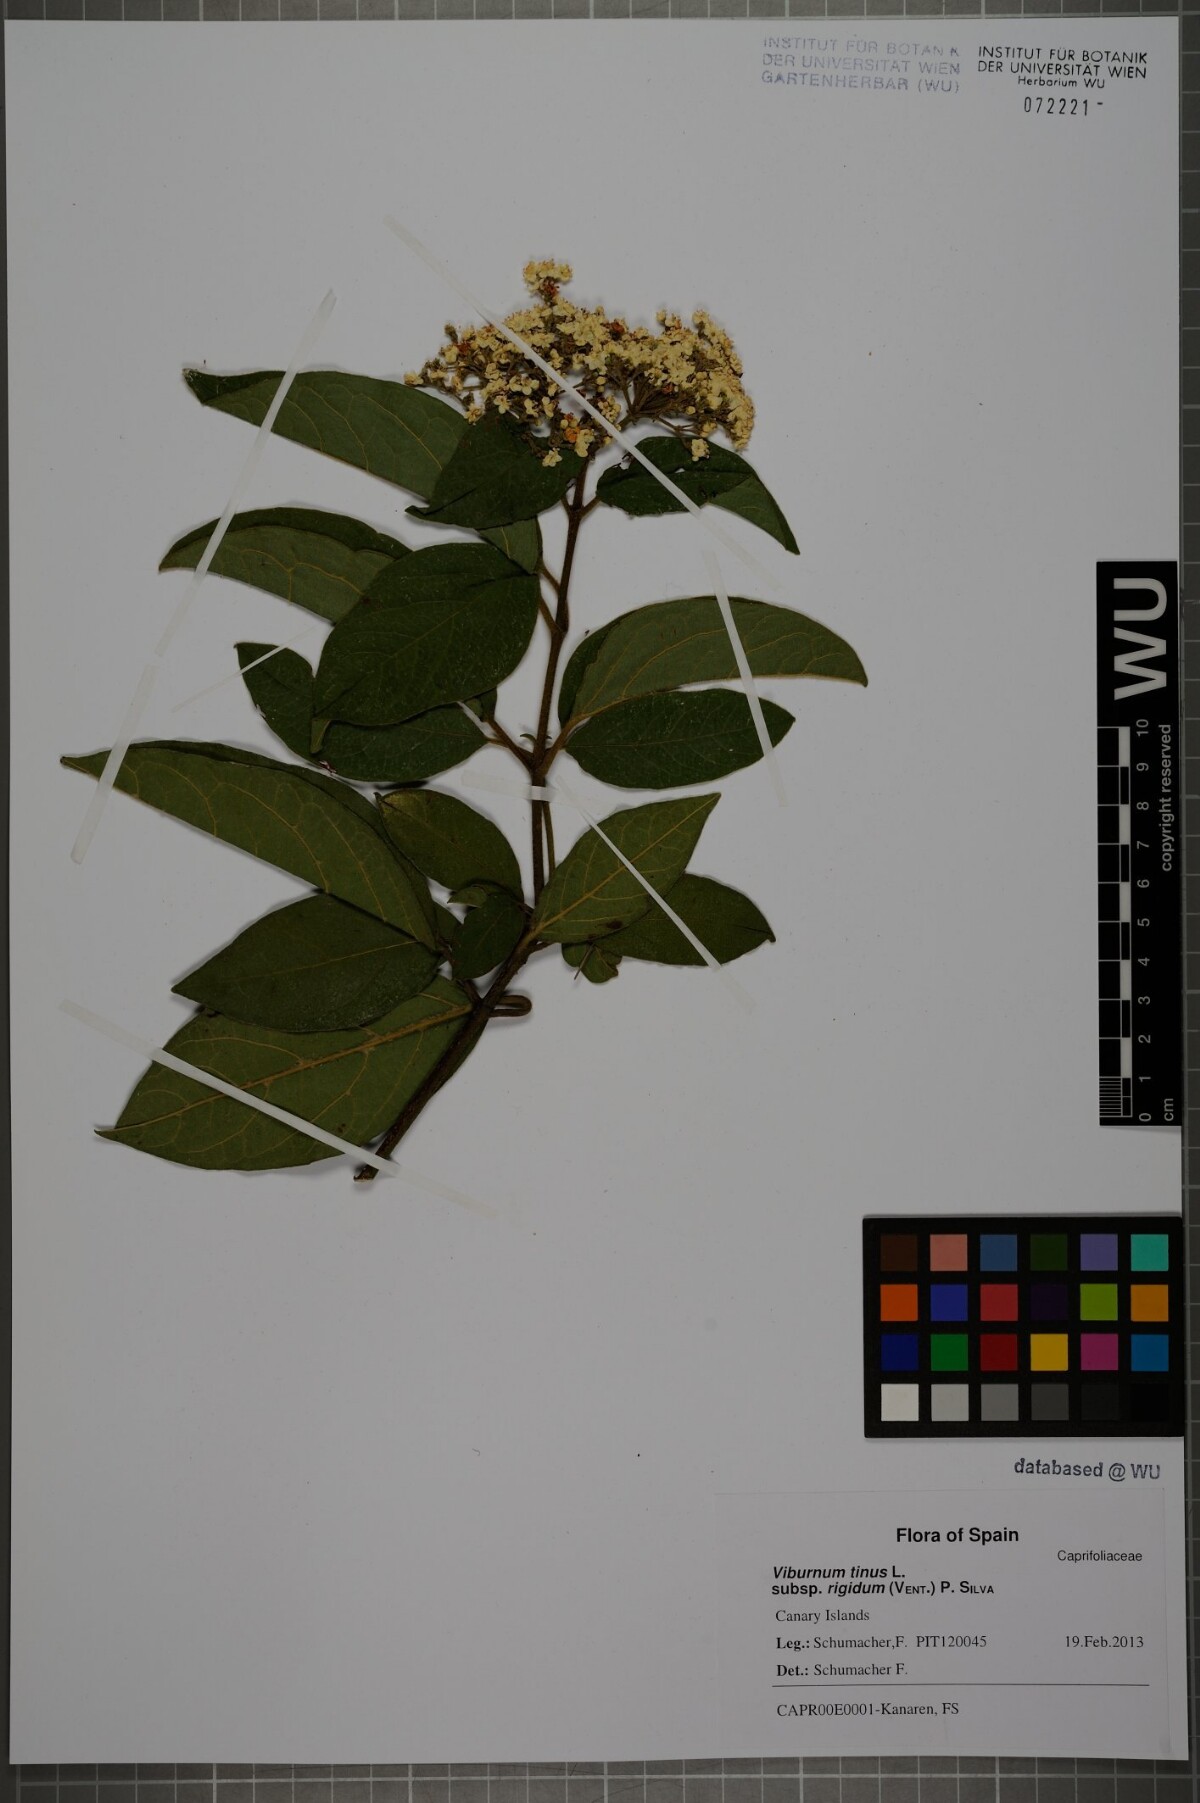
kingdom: Plantae
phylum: Tracheophyta
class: Magnoliopsida
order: Dipsacales
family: Viburnaceae
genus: Viburnum
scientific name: Viburnum rugosum
